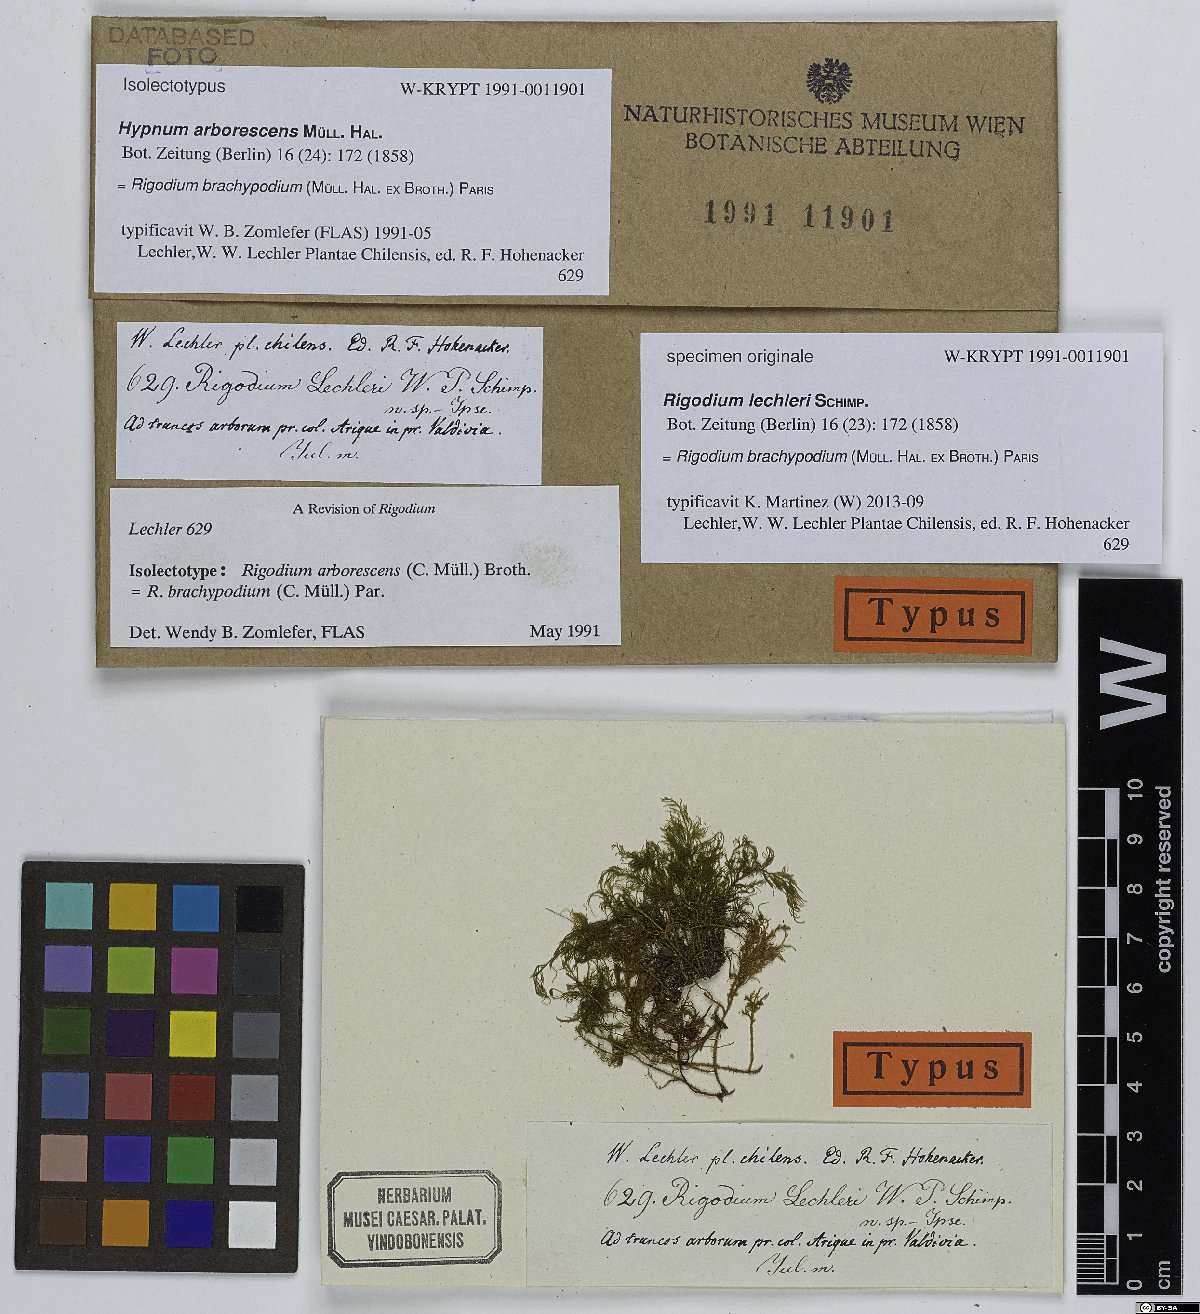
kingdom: Plantae
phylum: Bryophyta
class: Bryopsida
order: Hypnales
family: Lembophyllaceae
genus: Rigodium
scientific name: Rigodium brachypodium
